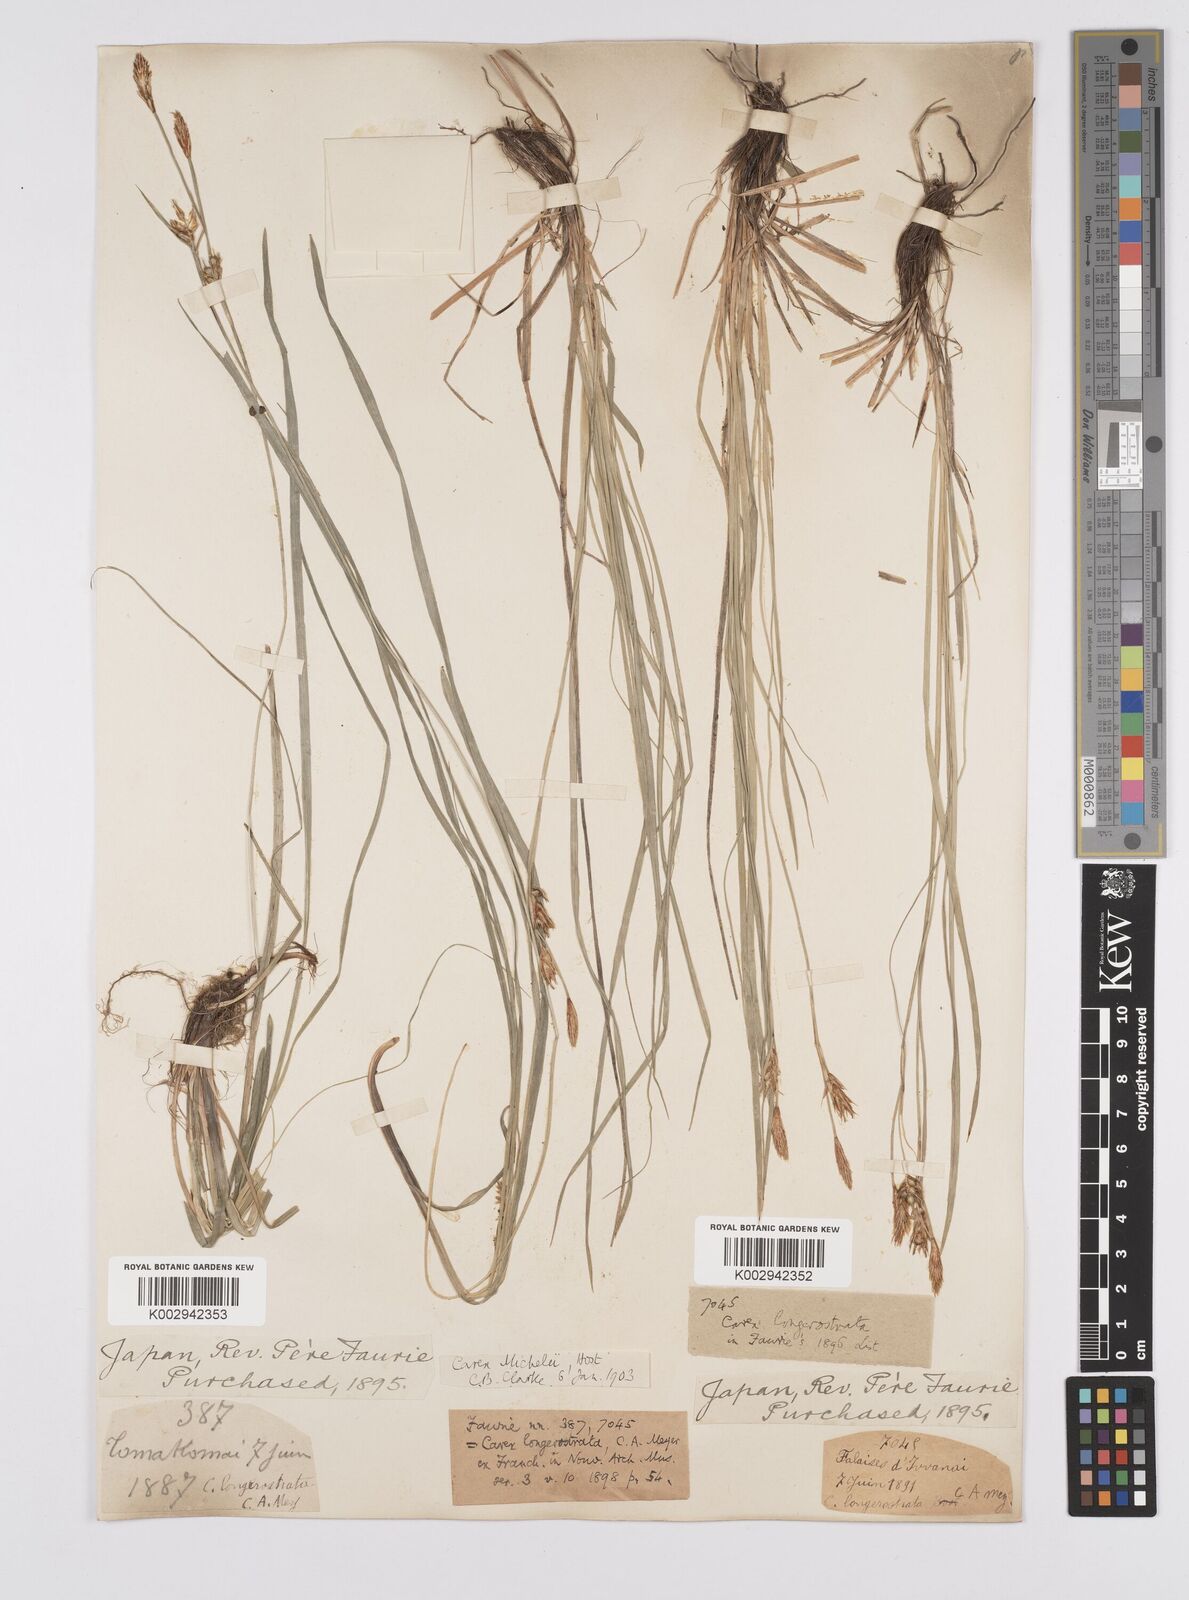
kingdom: Plantae
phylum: Tracheophyta
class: Liliopsida
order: Poales
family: Cyperaceae
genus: Carex
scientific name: Carex michelii
